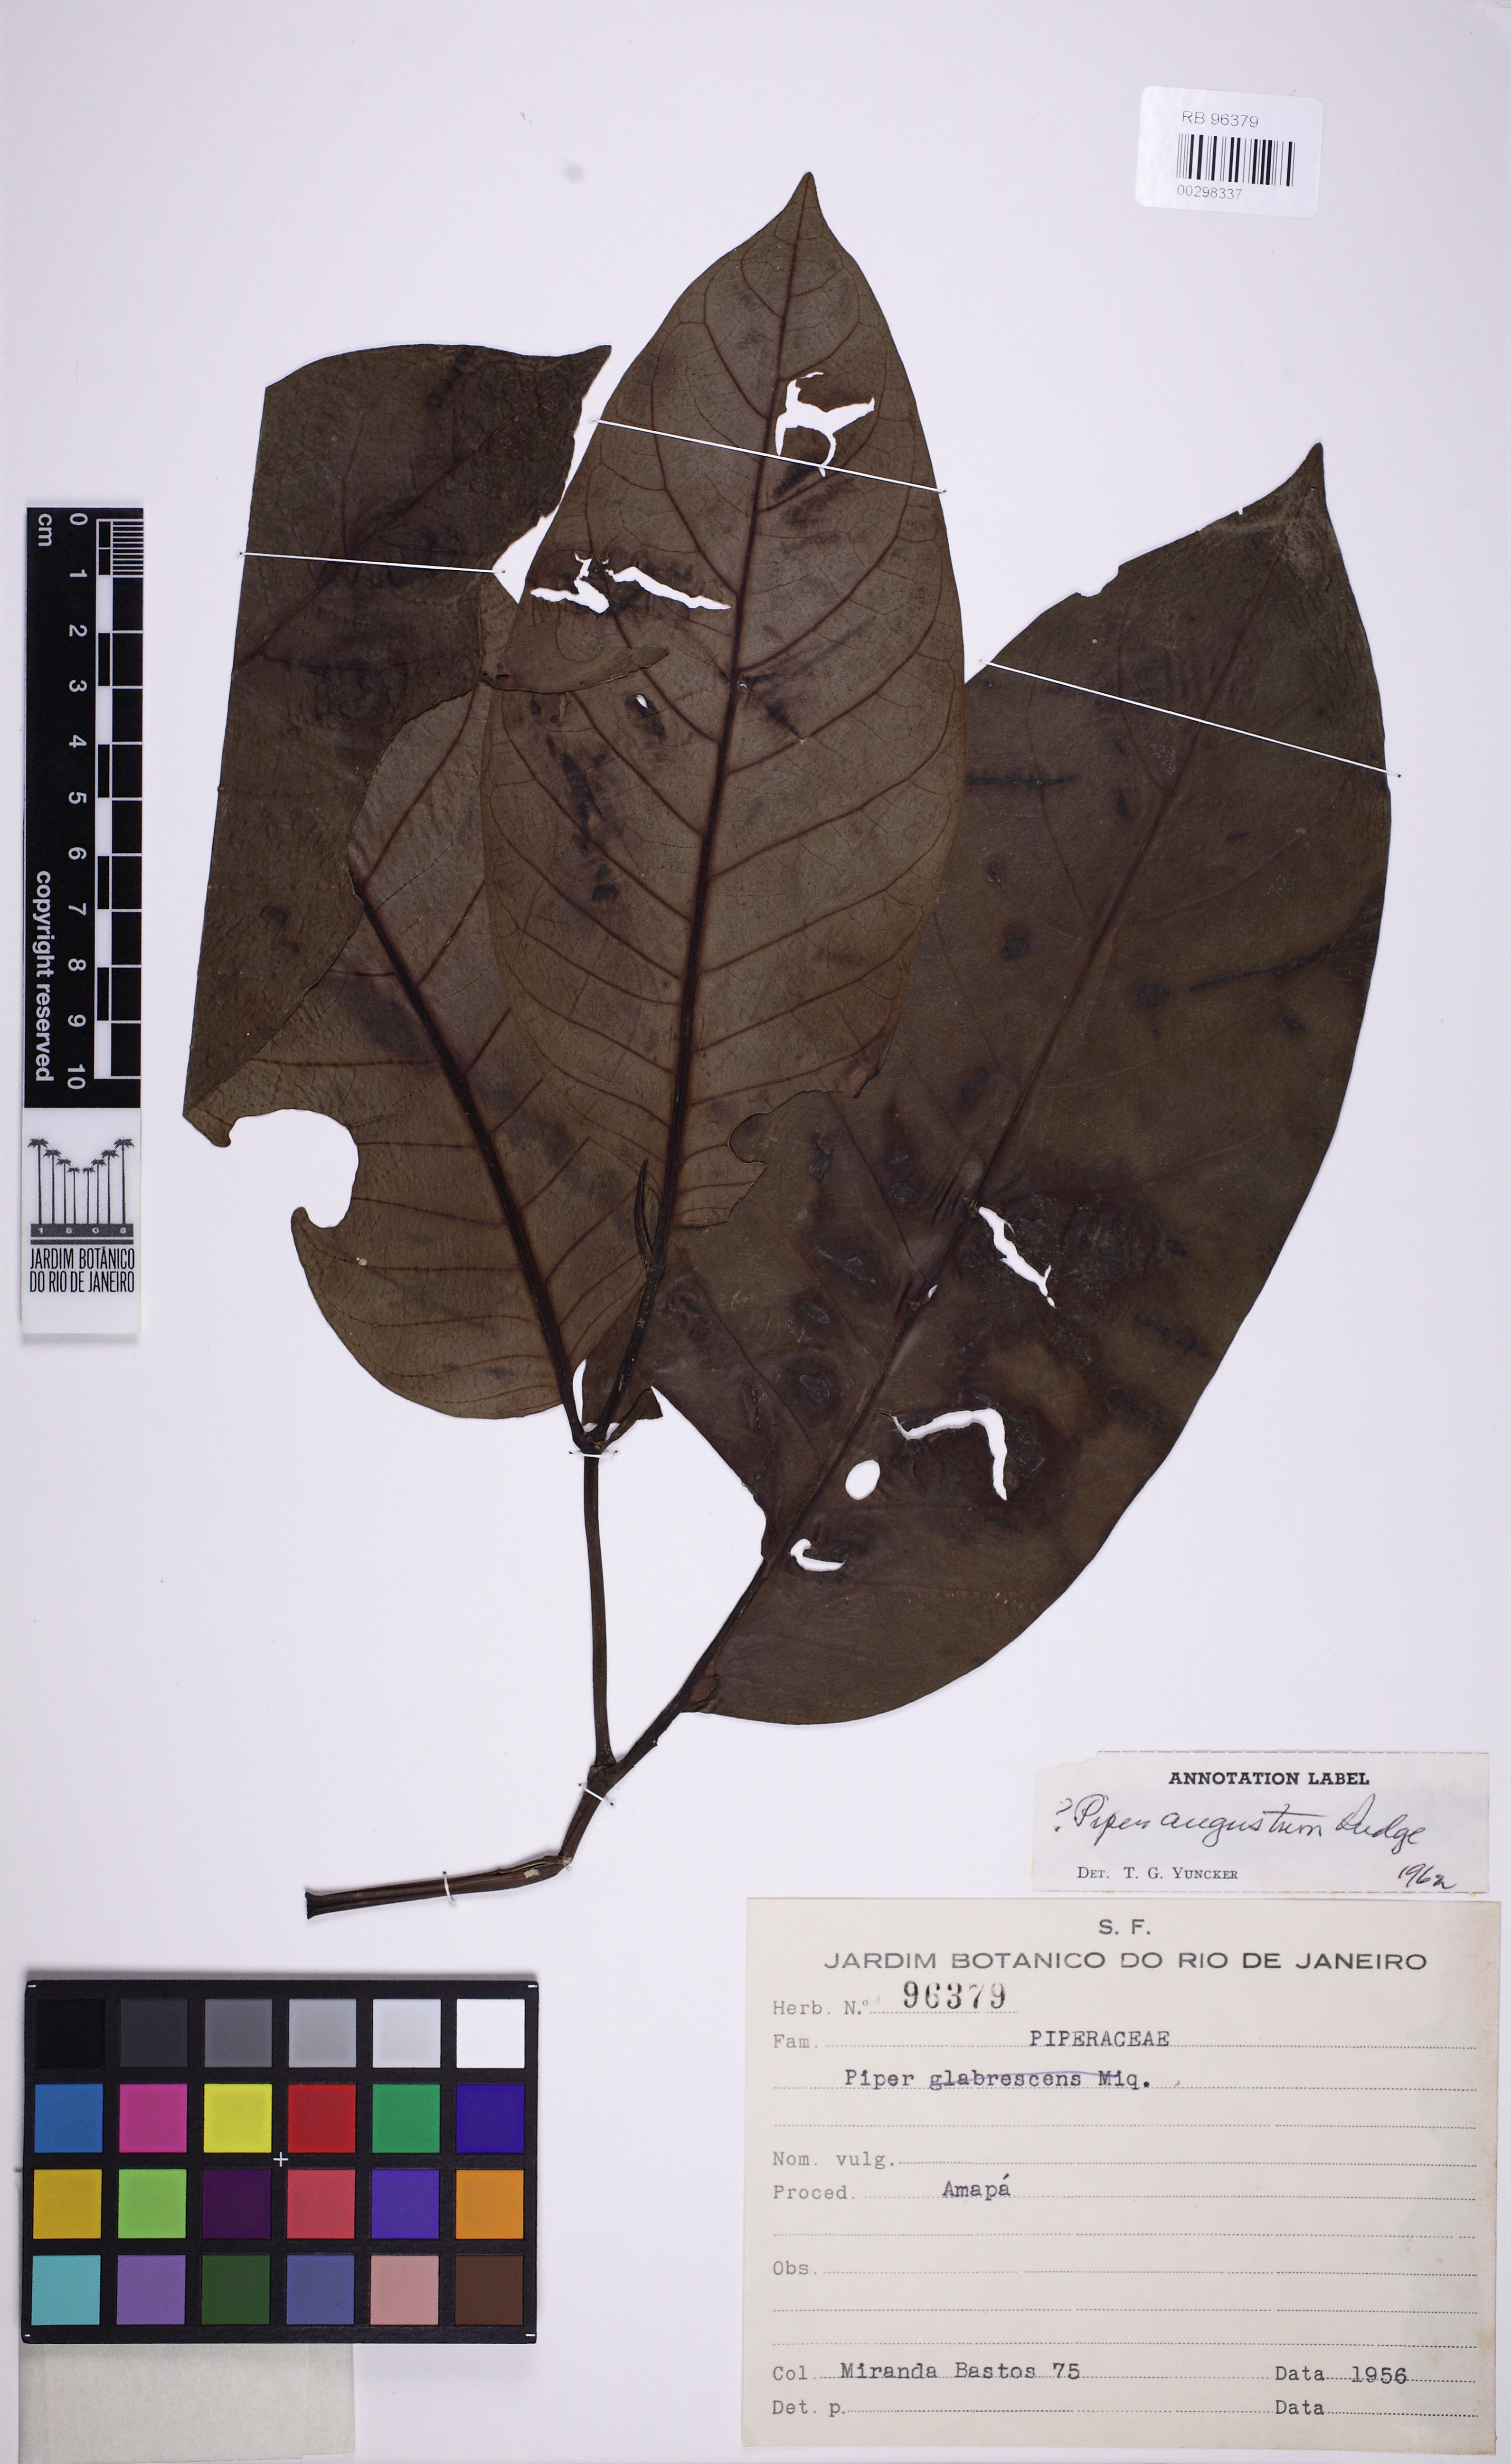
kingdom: Plantae
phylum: Tracheophyta
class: Magnoliopsida
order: Piperales
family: Piperaceae
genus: Piper
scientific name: Piper augustum
